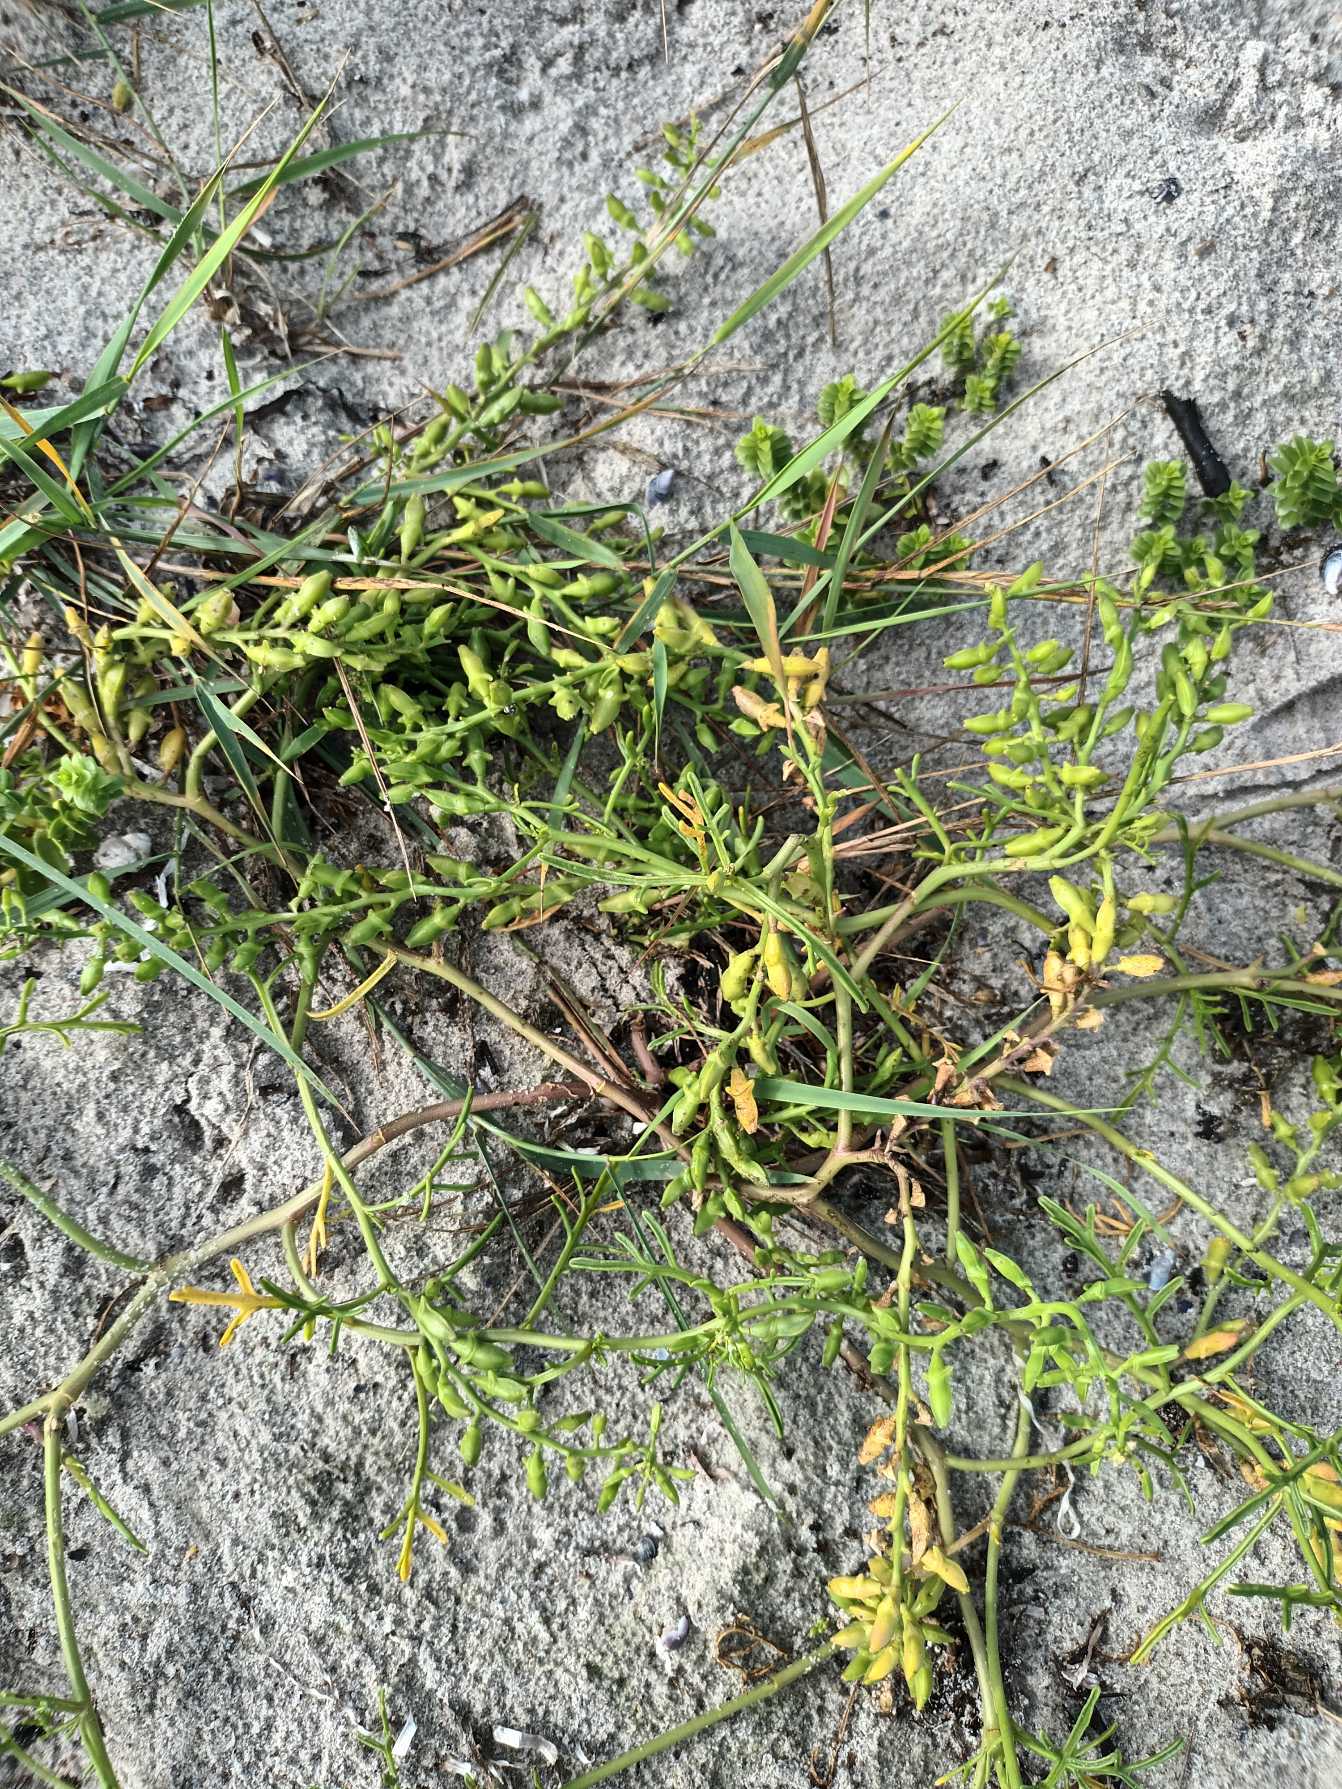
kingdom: Plantae
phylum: Tracheophyta
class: Magnoliopsida
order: Brassicales
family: Brassicaceae
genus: Cakile
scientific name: Cakile maritima
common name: Strandsennep
